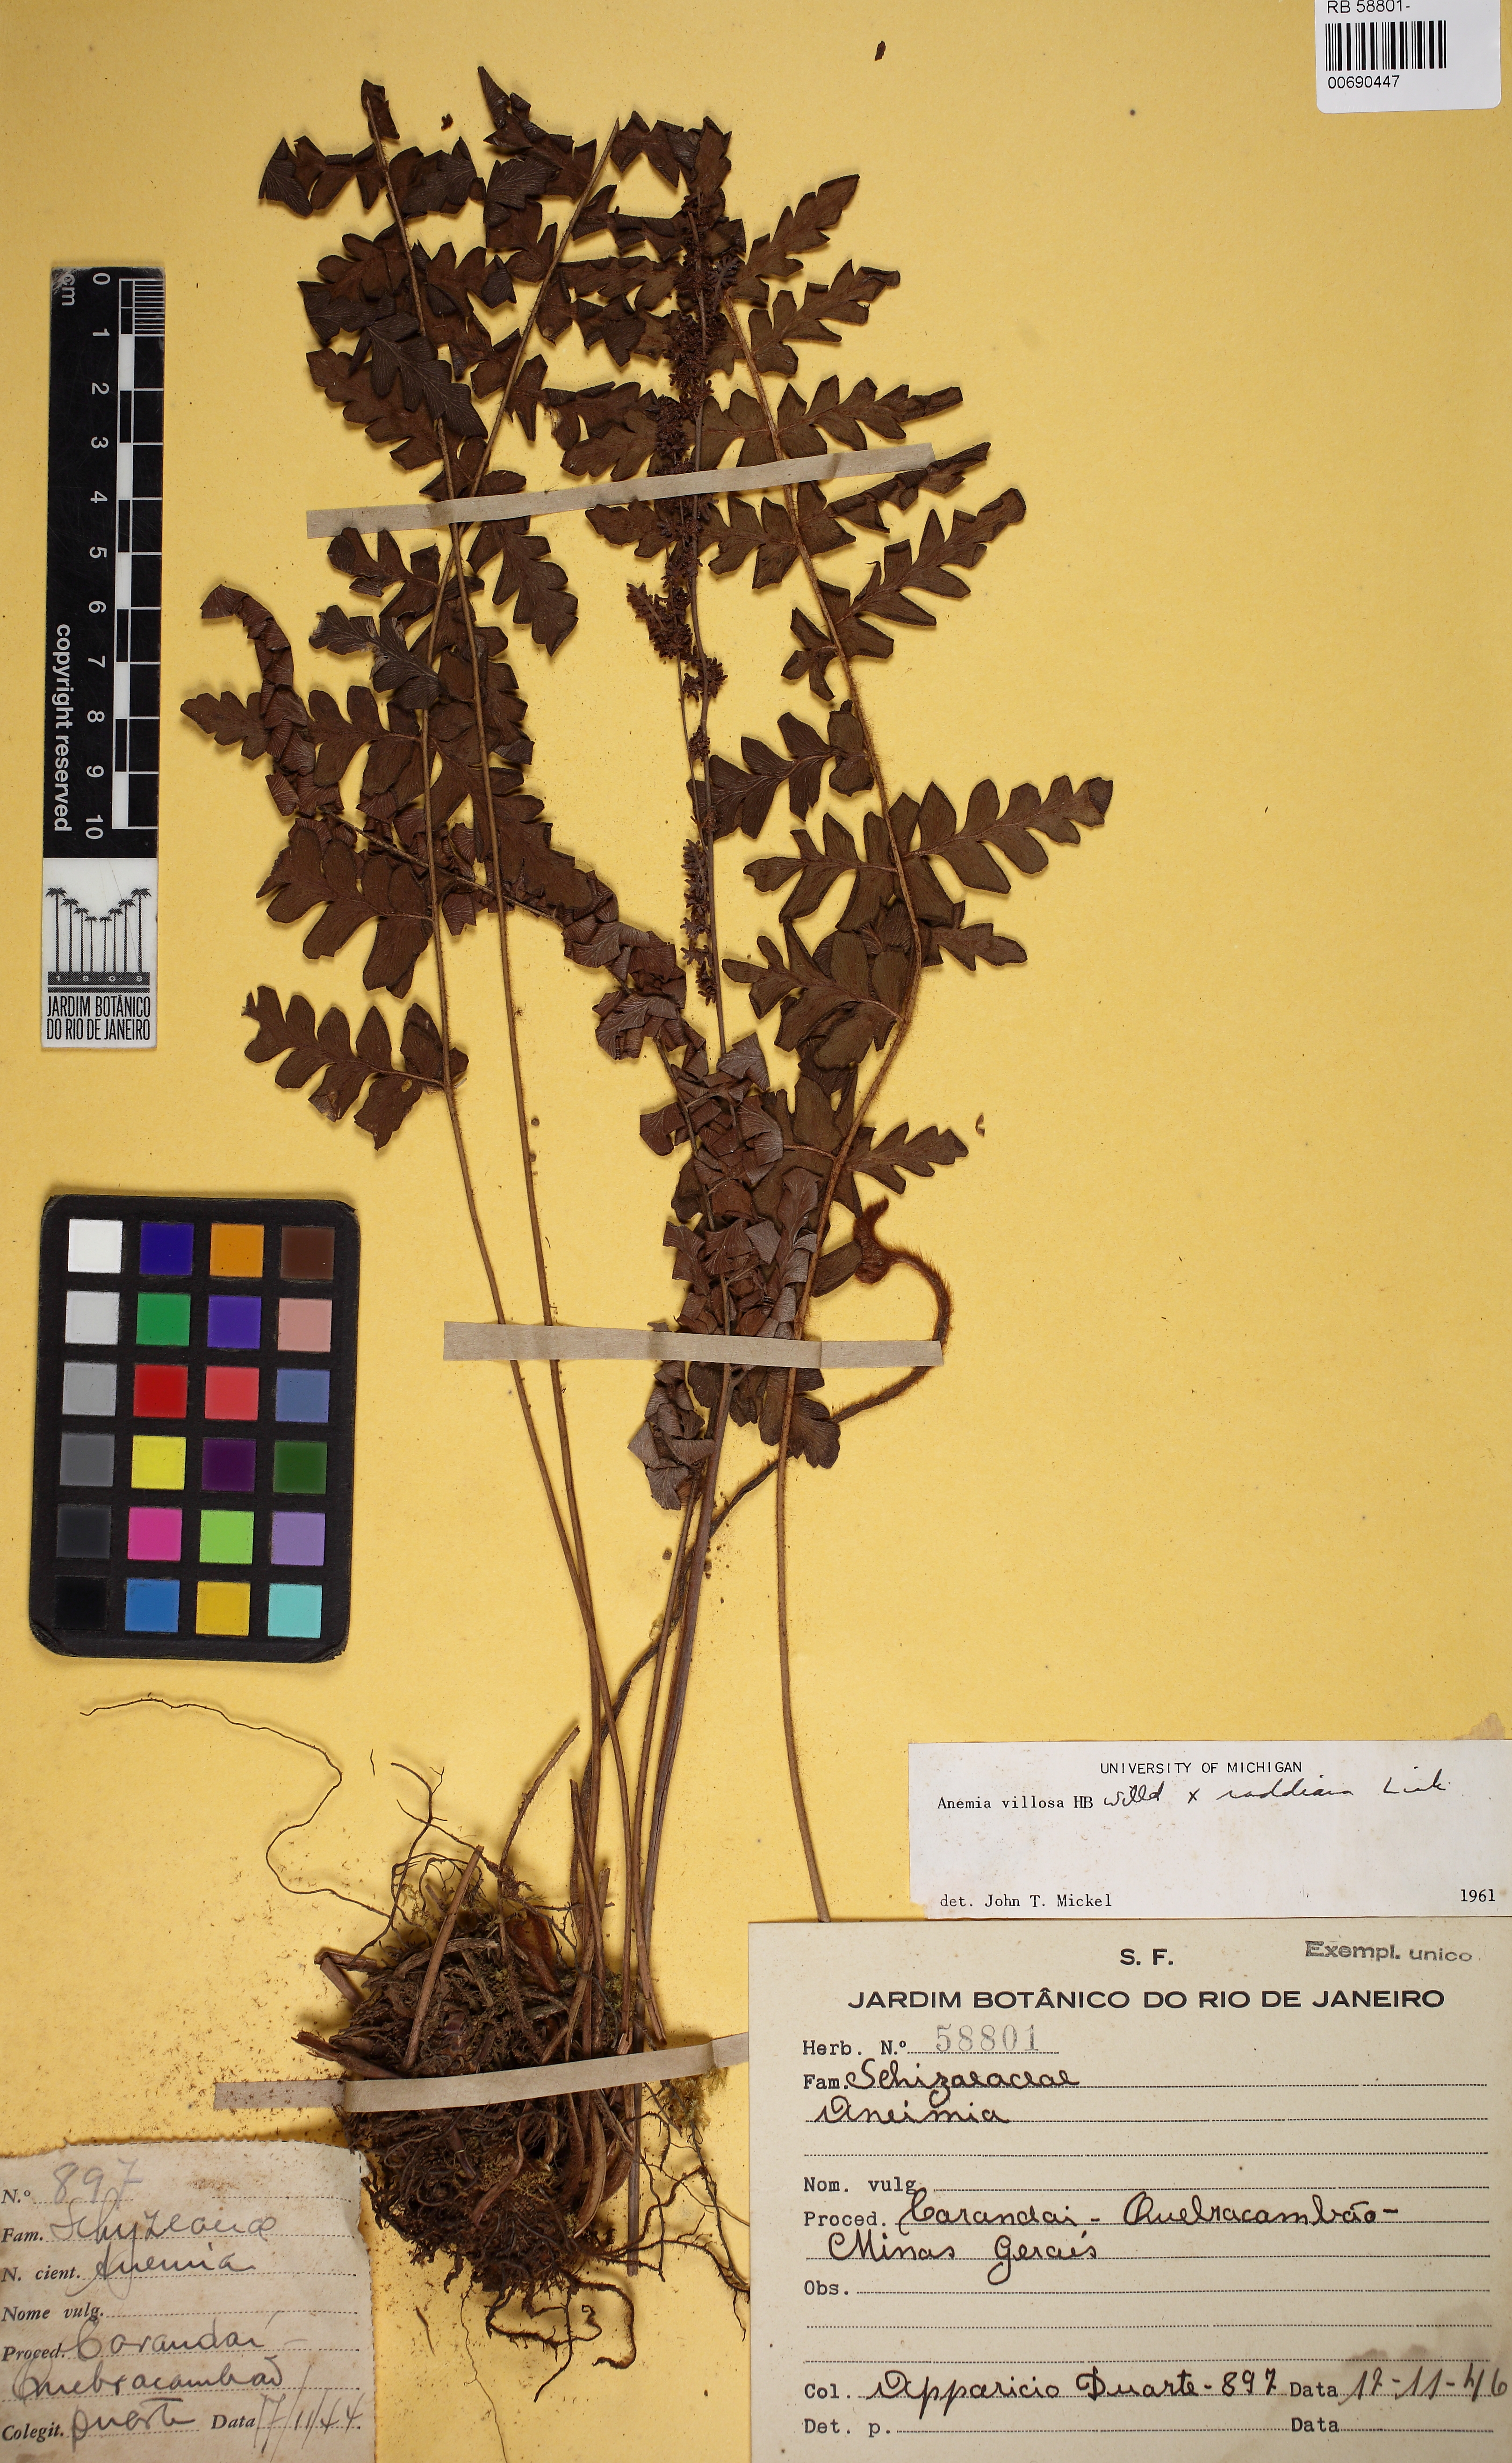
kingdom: Plantae
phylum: Tracheophyta
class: Polypodiopsida
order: Schizaeales
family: Anemiaceae
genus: Anemia
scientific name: Anemia villosa
